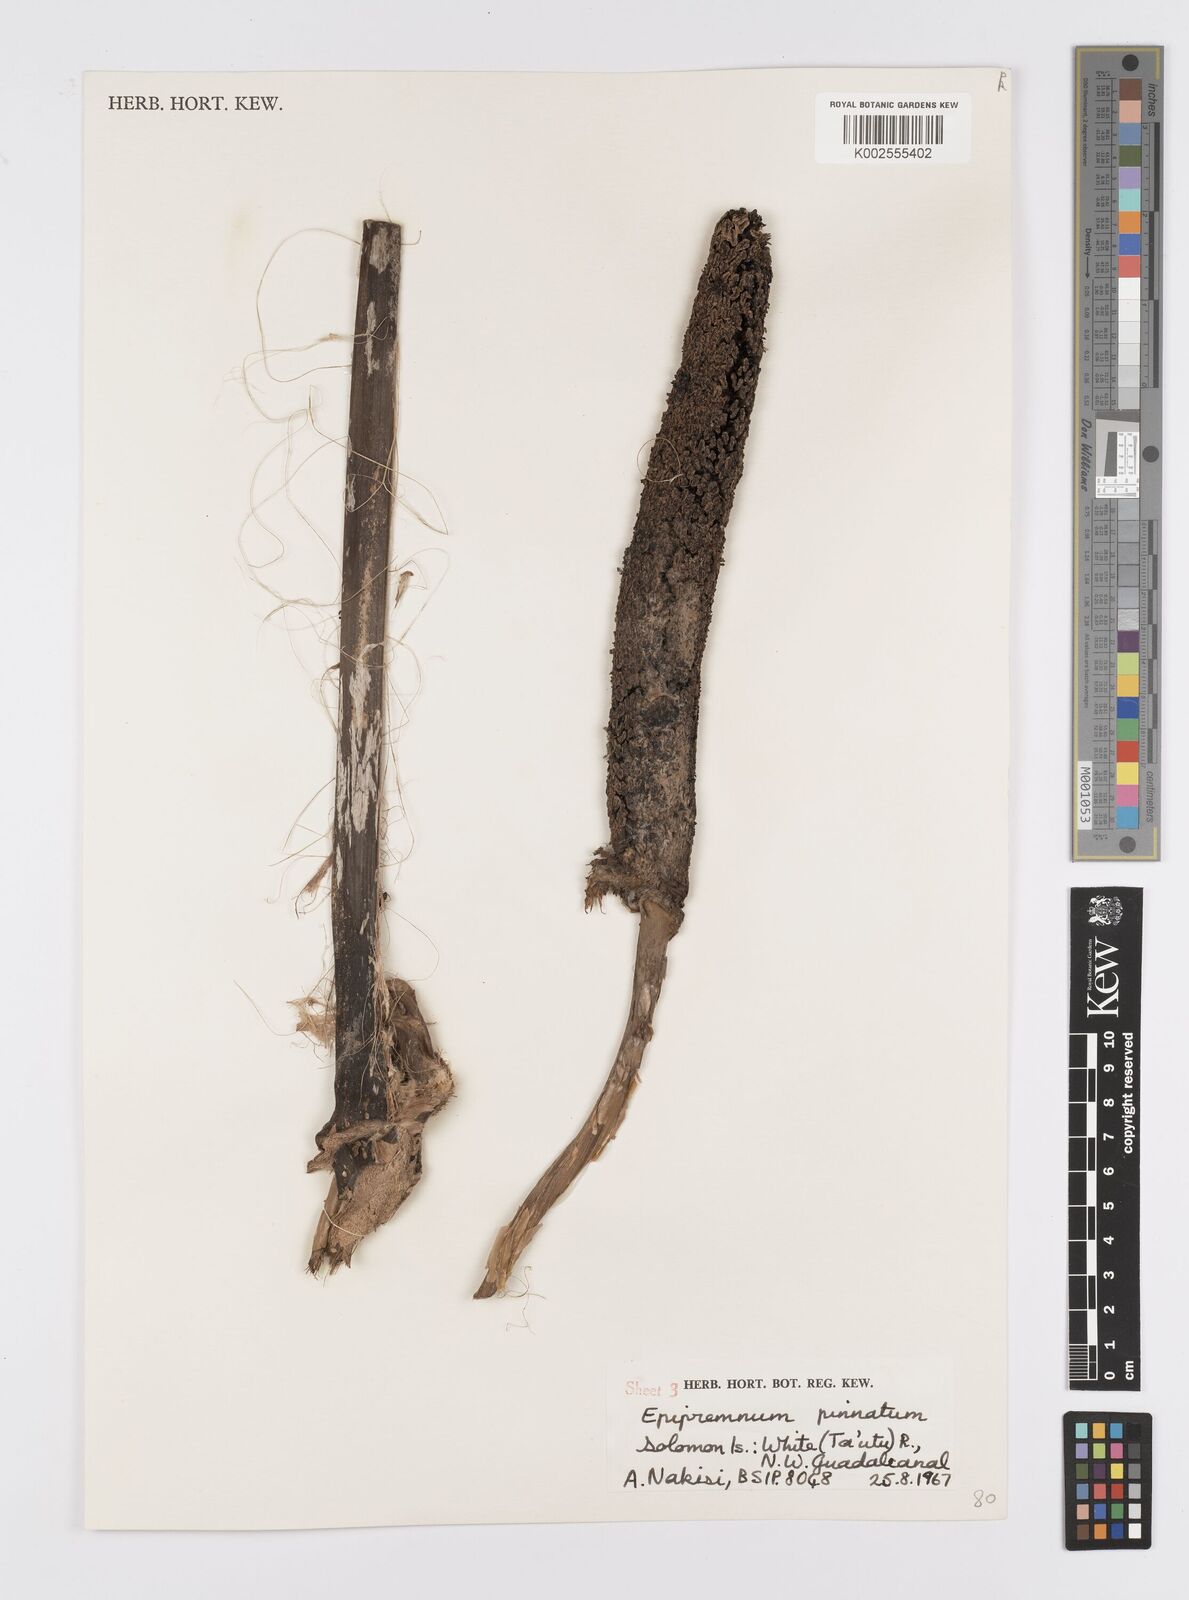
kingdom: Plantae
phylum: Tracheophyta
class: Liliopsida
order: Alismatales
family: Araceae
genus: Epipremnum
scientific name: Epipremnum pinnatum
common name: Centipede tongavine
